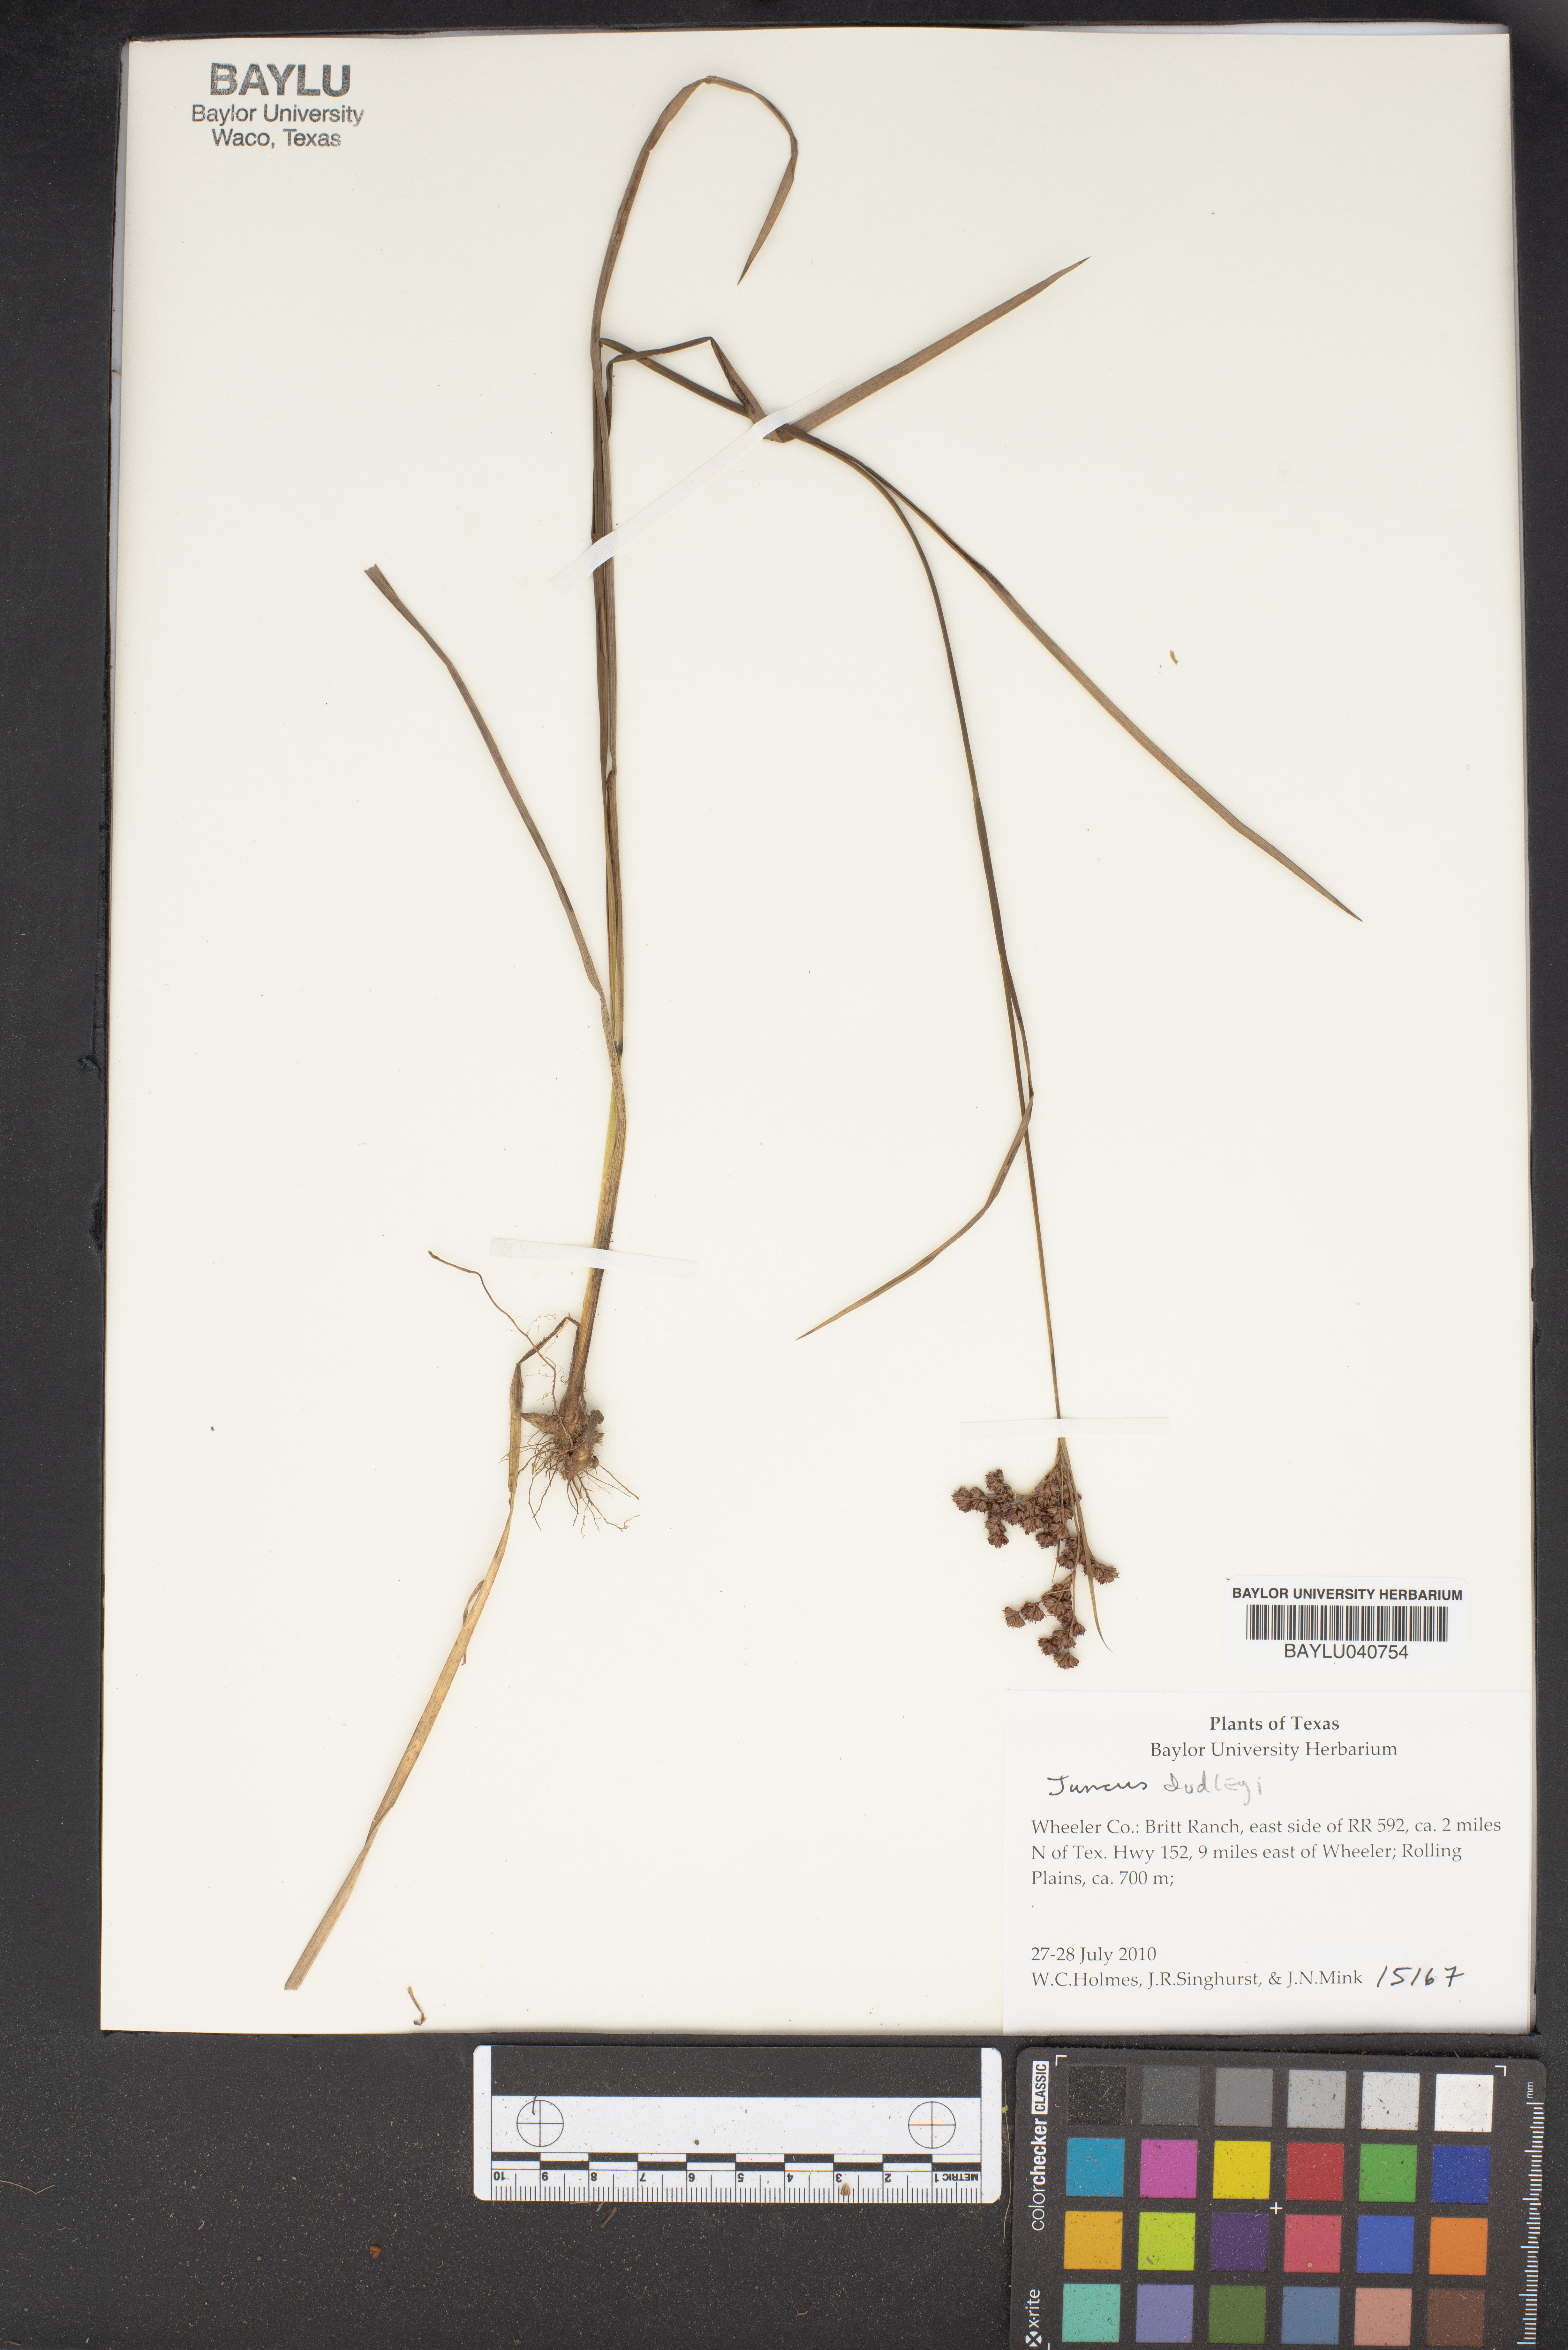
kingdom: Plantae
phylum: Tracheophyta
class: Liliopsida
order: Poales
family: Juncaceae
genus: Juncus
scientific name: Juncus
